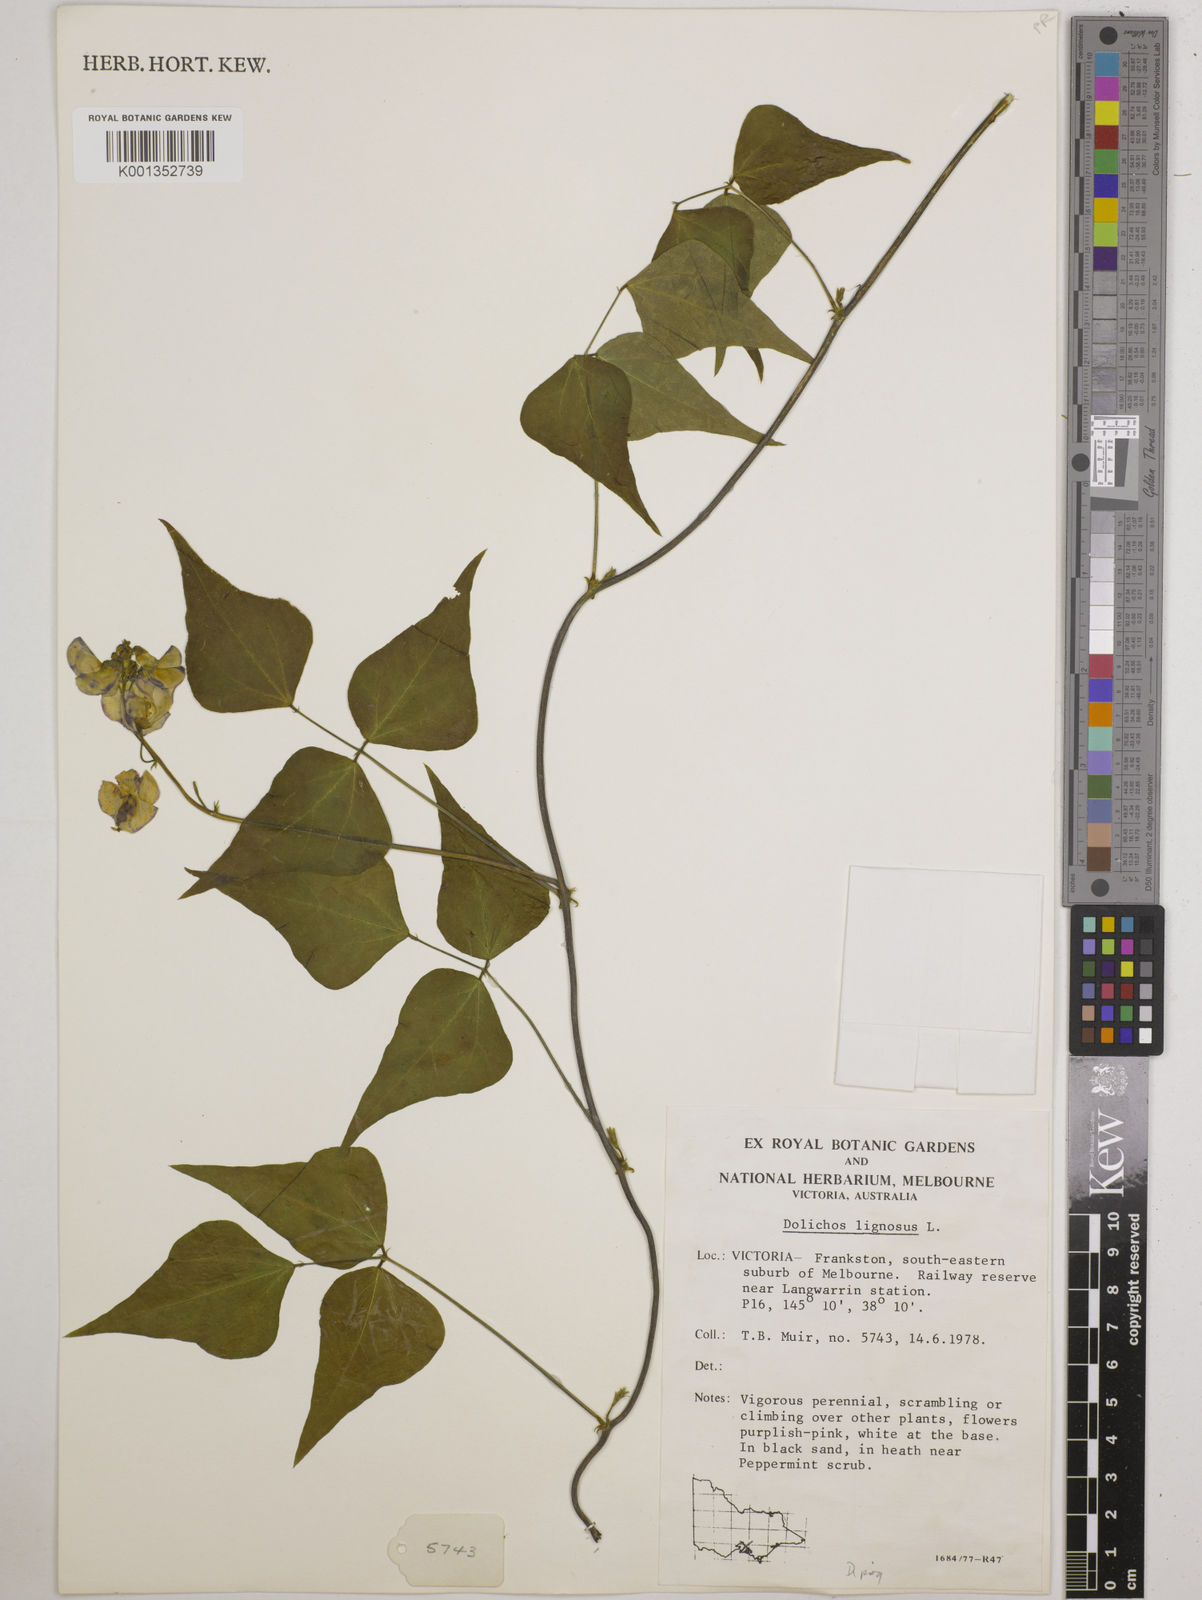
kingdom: Plantae
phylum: Tracheophyta
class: Magnoliopsida
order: Fabales
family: Fabaceae
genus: Dipogon
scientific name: Dipogon lignosus
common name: Okie bean
